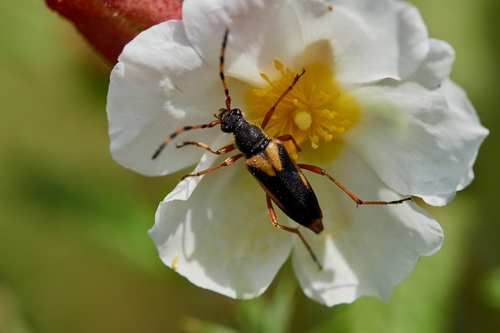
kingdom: Animalia
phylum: Arthropoda
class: Insecta
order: Coleoptera
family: Cerambycidae
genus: Stictoleptura
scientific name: Stictoleptura stragulata
